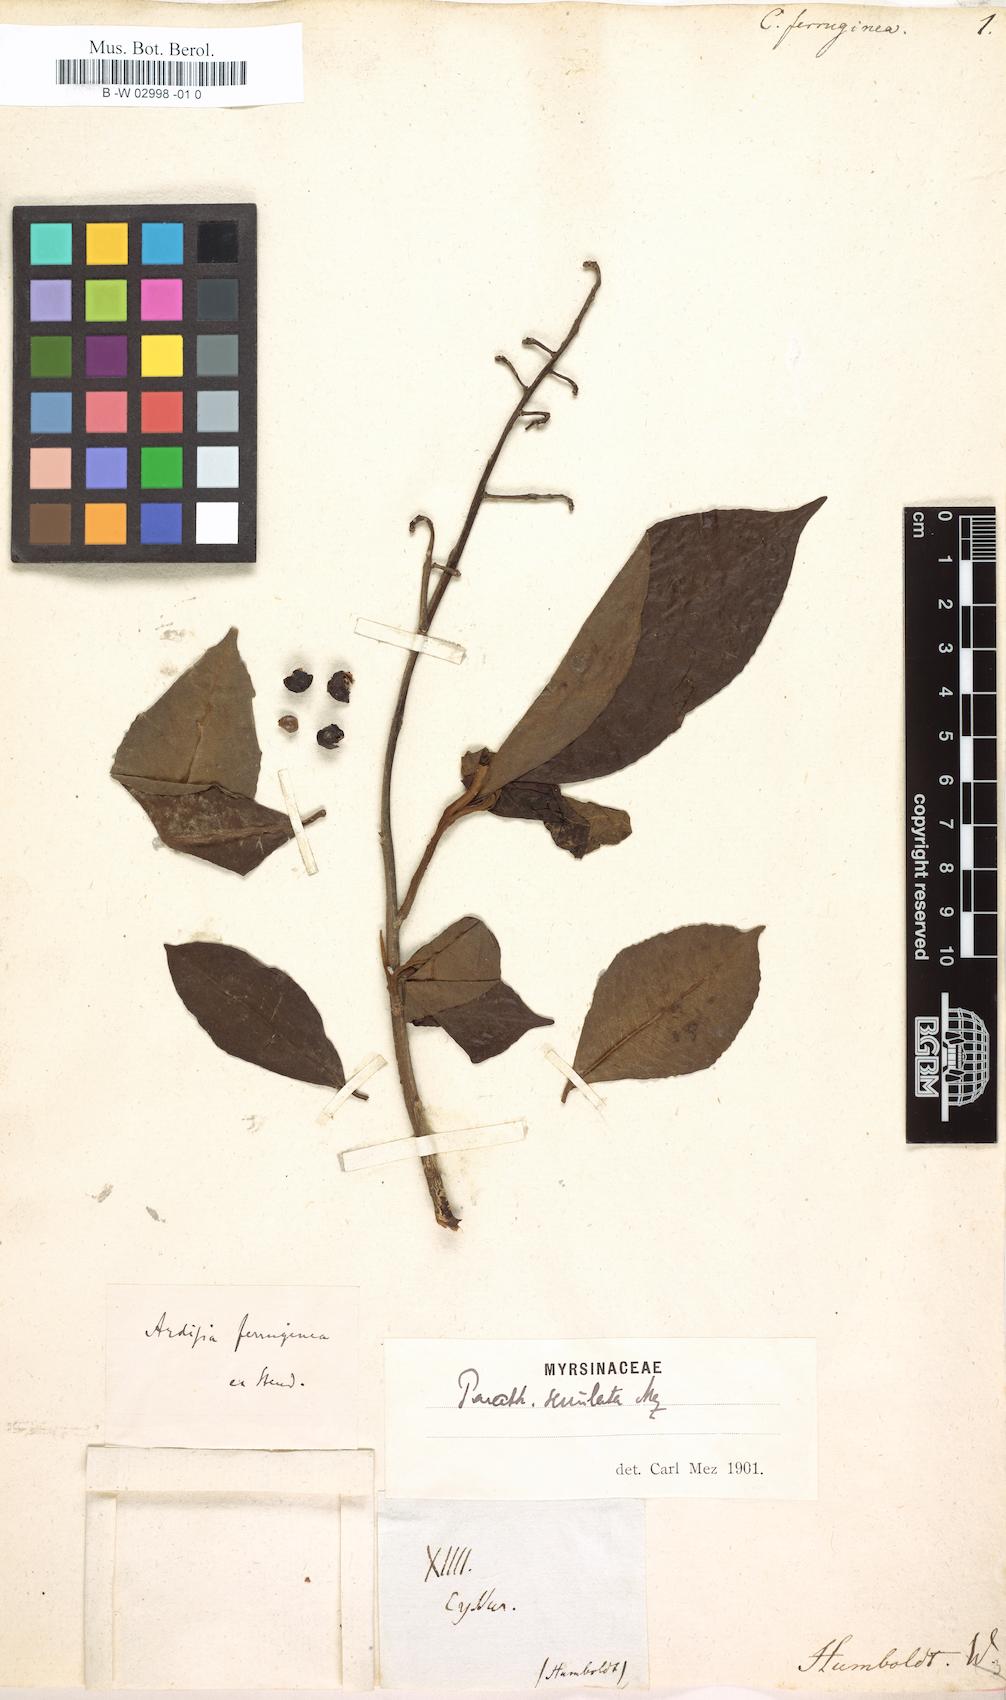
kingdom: Plantae
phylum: Tracheophyta
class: Magnoliopsida
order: Ericales
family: Primulaceae
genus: Ardisia
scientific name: Ardisia rudis
